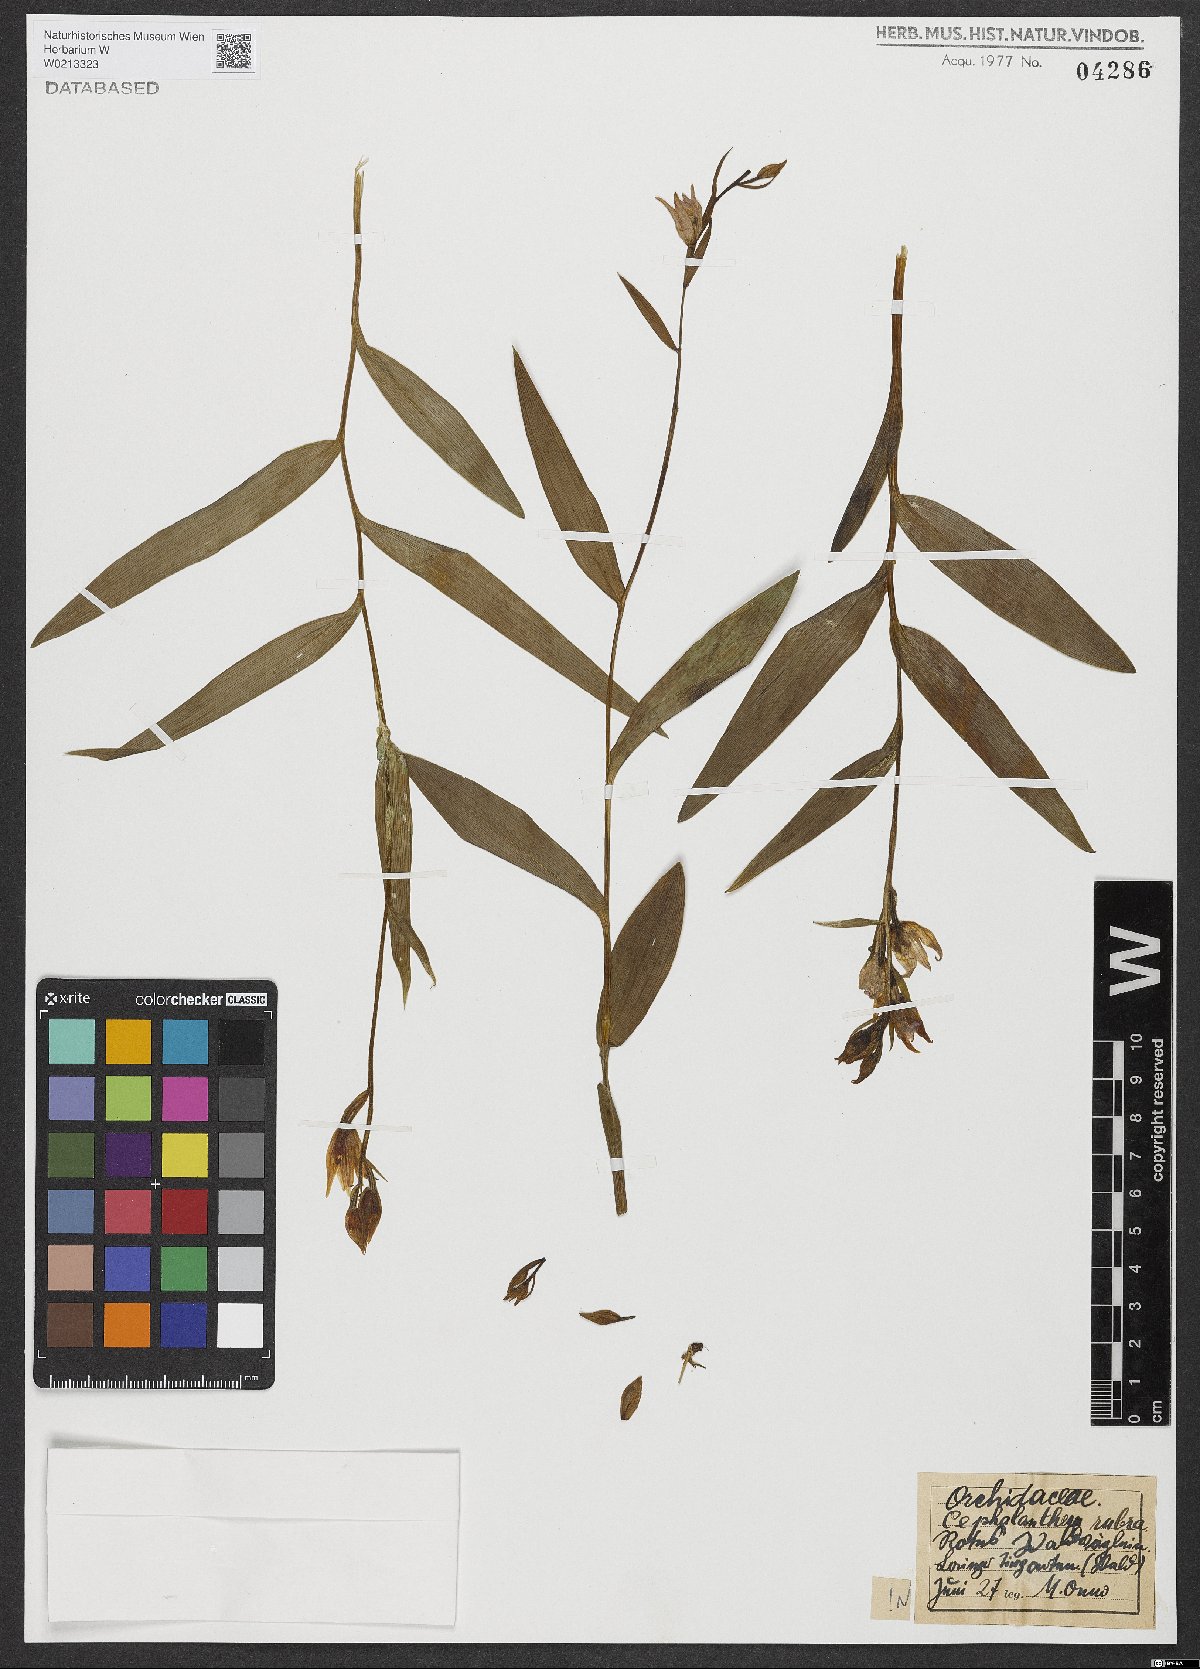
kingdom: Plantae
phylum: Tracheophyta
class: Liliopsida
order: Asparagales
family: Orchidaceae
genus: Cephalanthera
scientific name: Cephalanthera rubra
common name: Red helleborine
